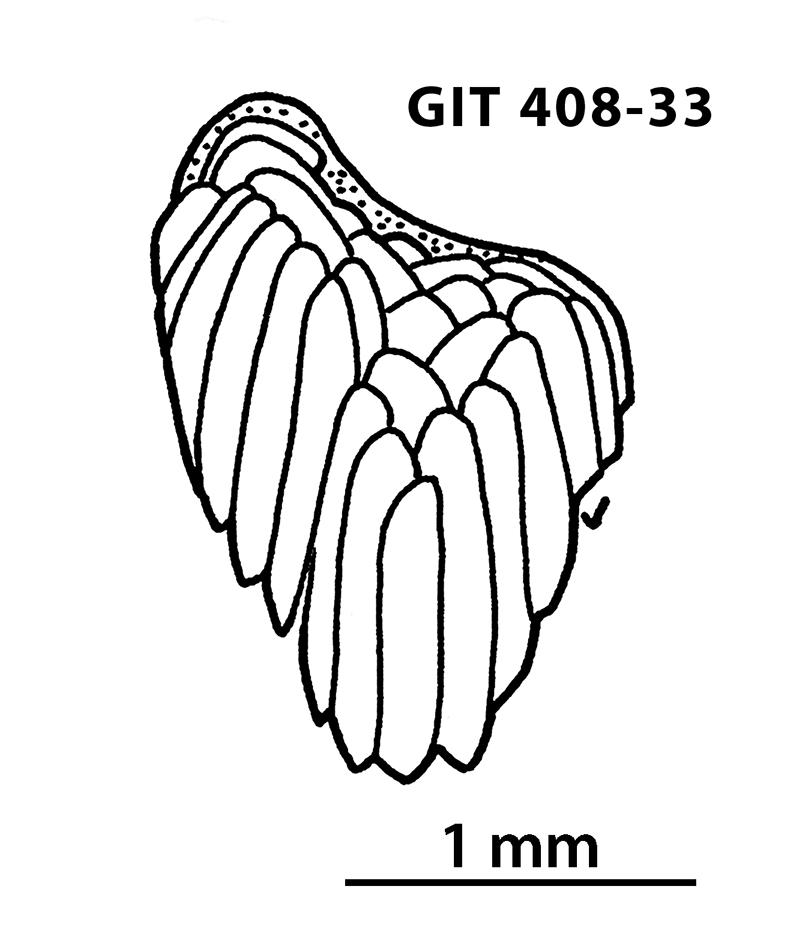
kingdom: Animalia
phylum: Chordata
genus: Archegonaspis
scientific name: Archegonaspis
